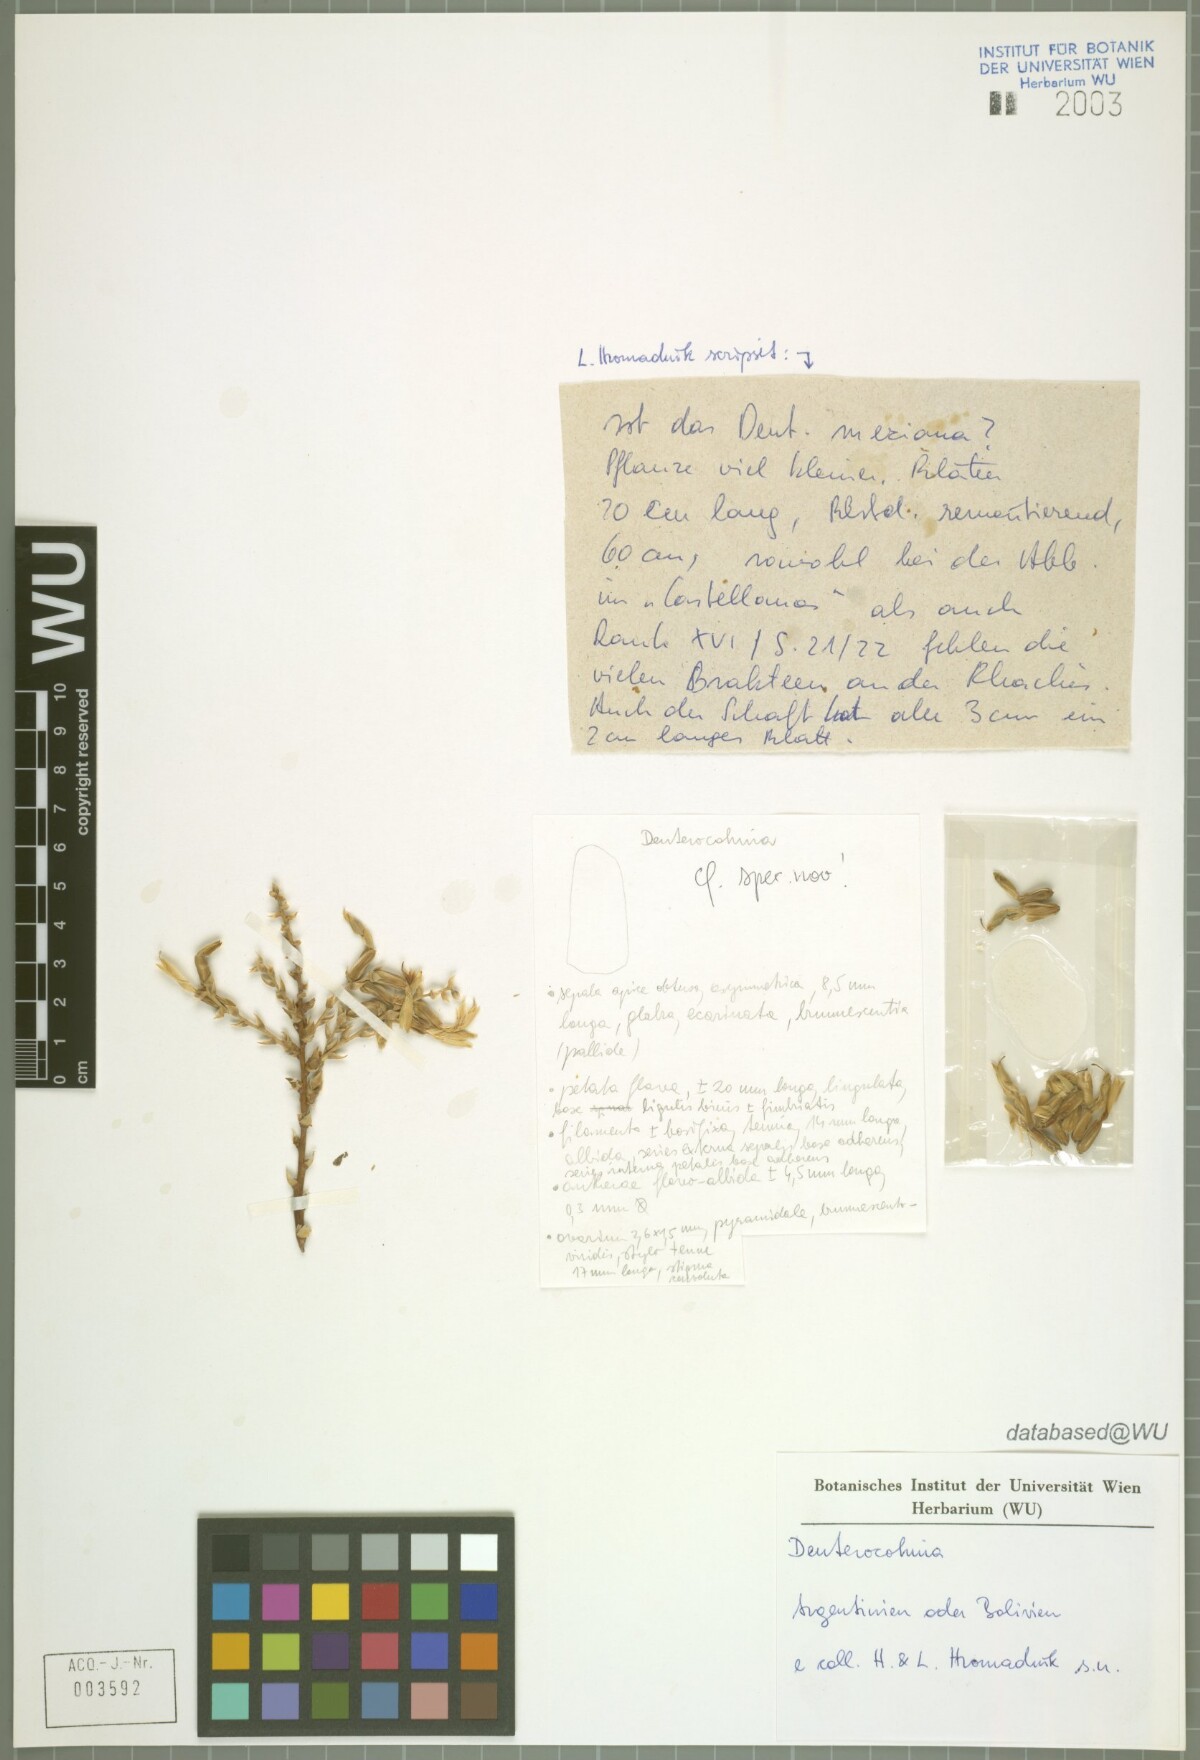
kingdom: Plantae
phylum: Tracheophyta
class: Liliopsida
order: Poales
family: Bromeliaceae
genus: Deuterocohnia
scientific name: Deuterocohnia
